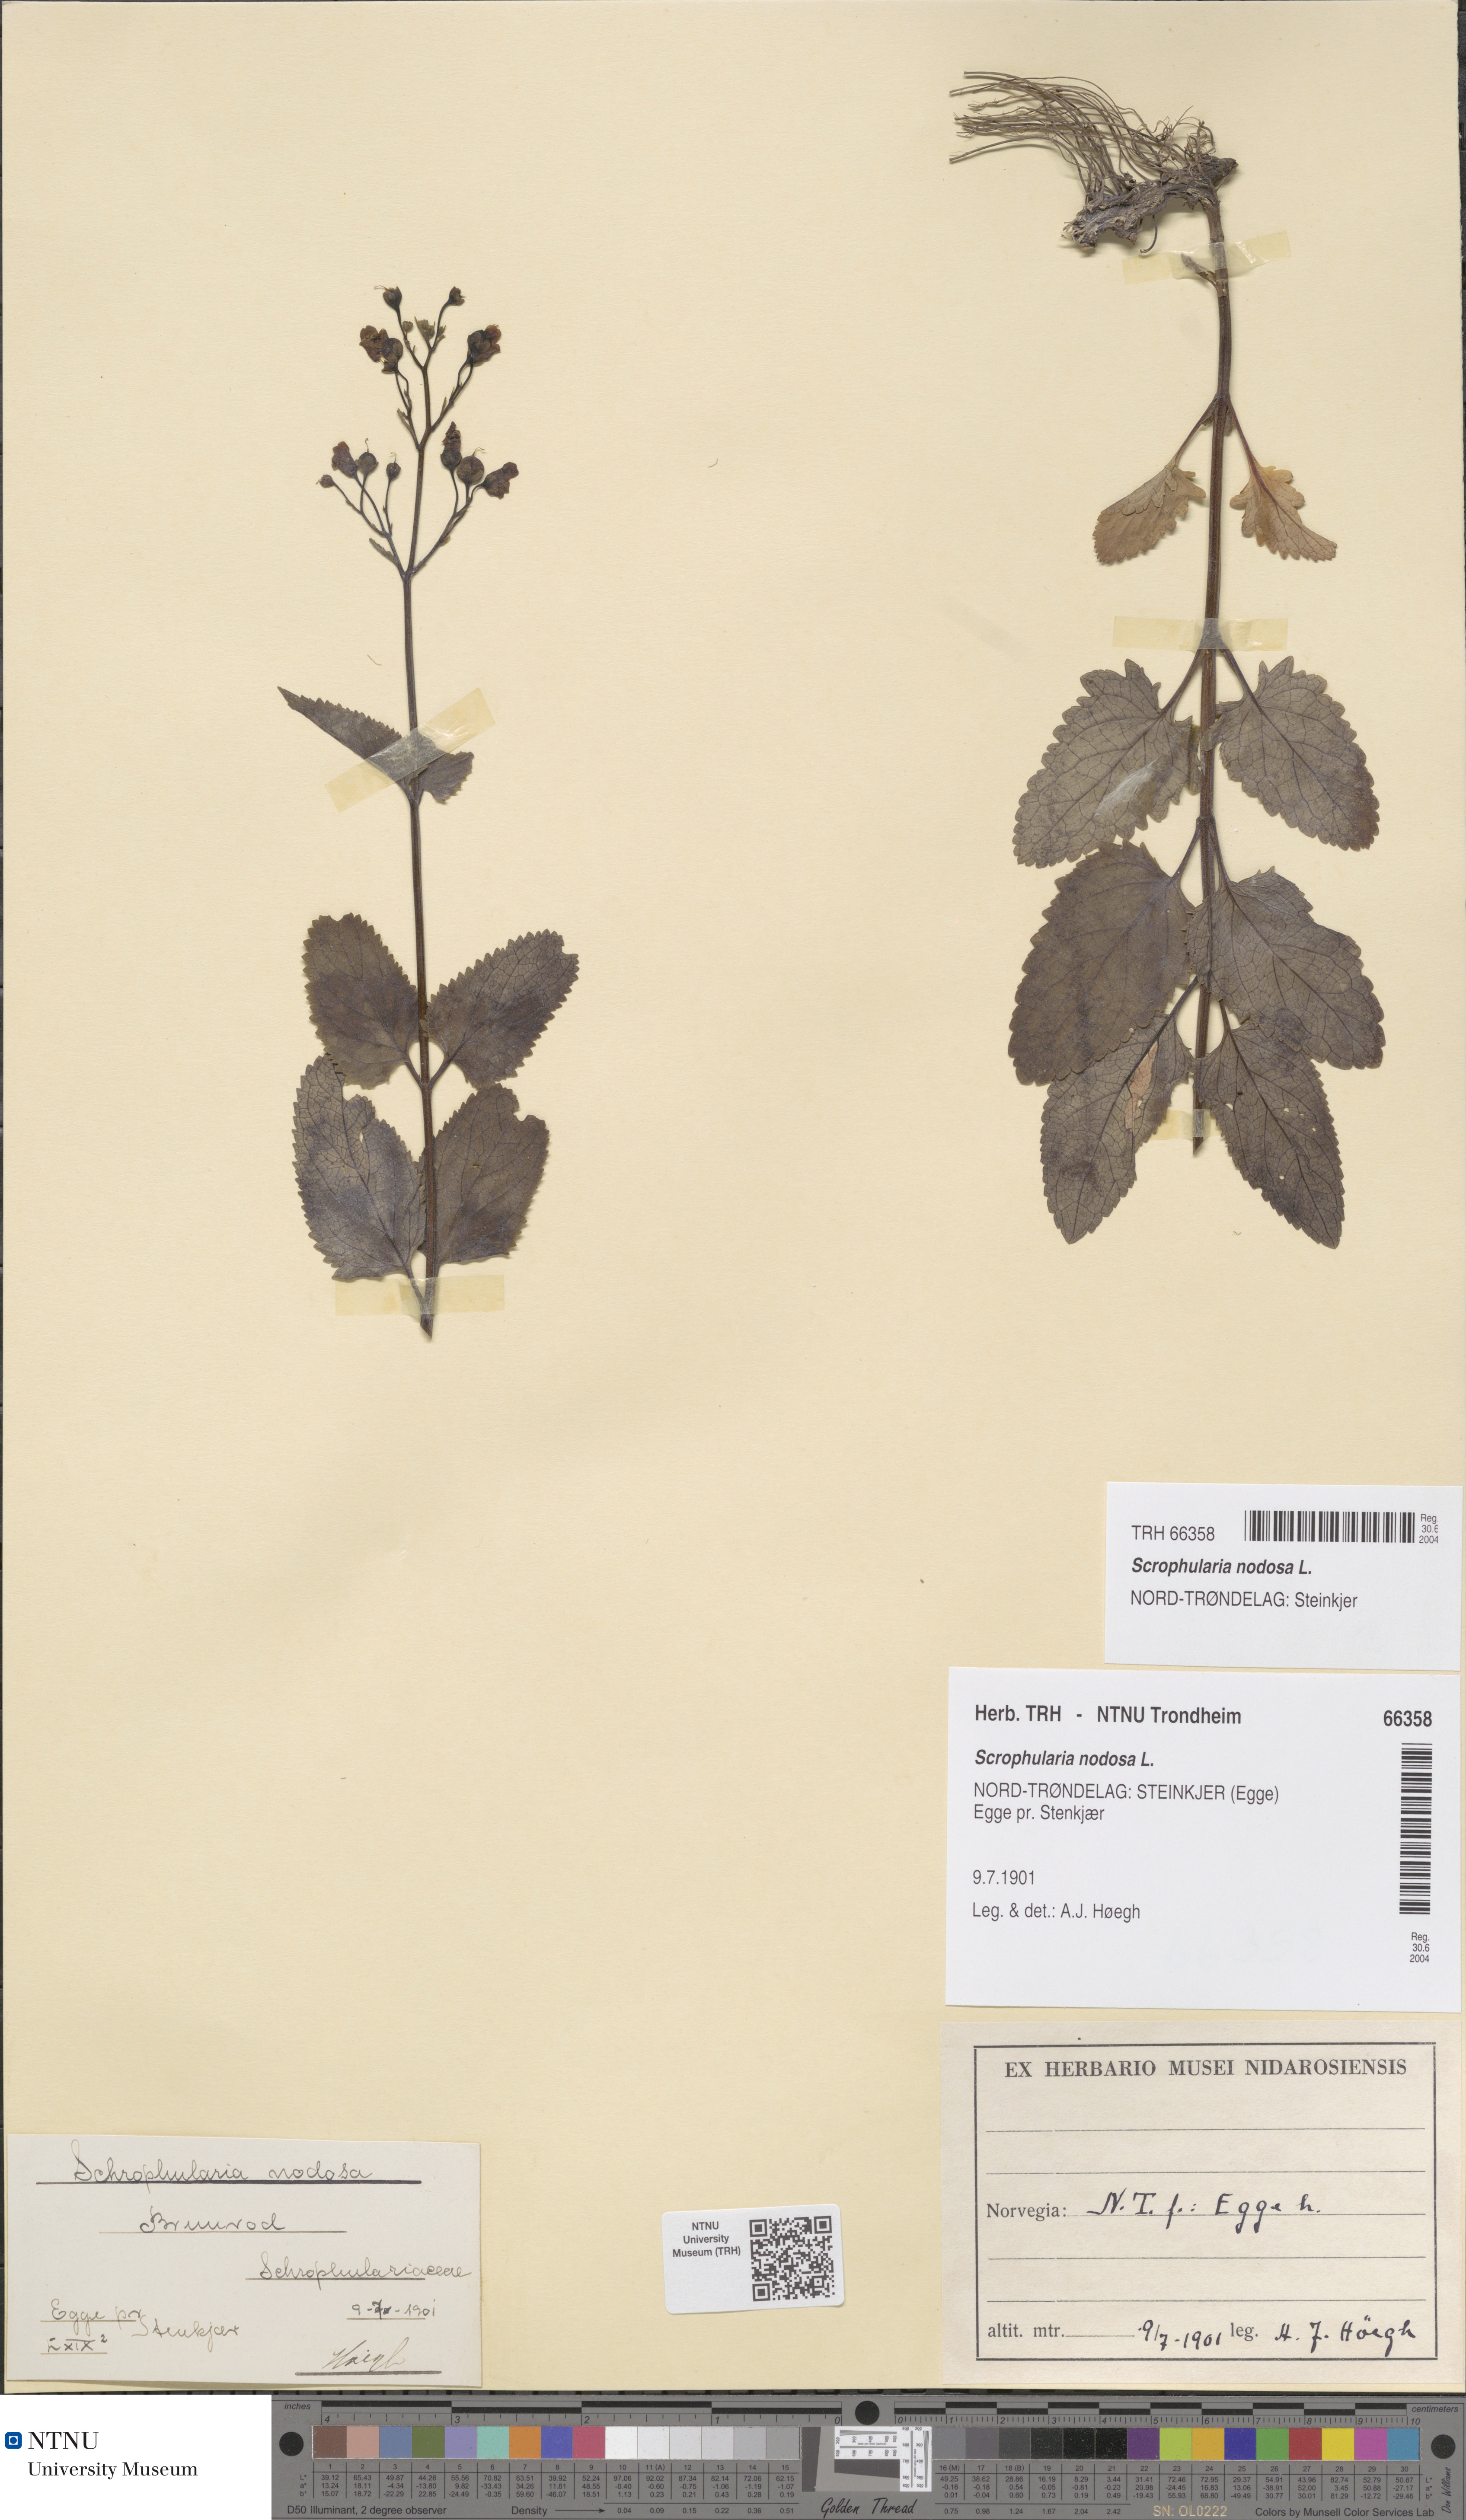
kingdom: Plantae
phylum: Tracheophyta
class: Magnoliopsida
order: Lamiales
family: Scrophulariaceae
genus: Scrophularia
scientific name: Scrophularia nodosa
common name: Common figwort
